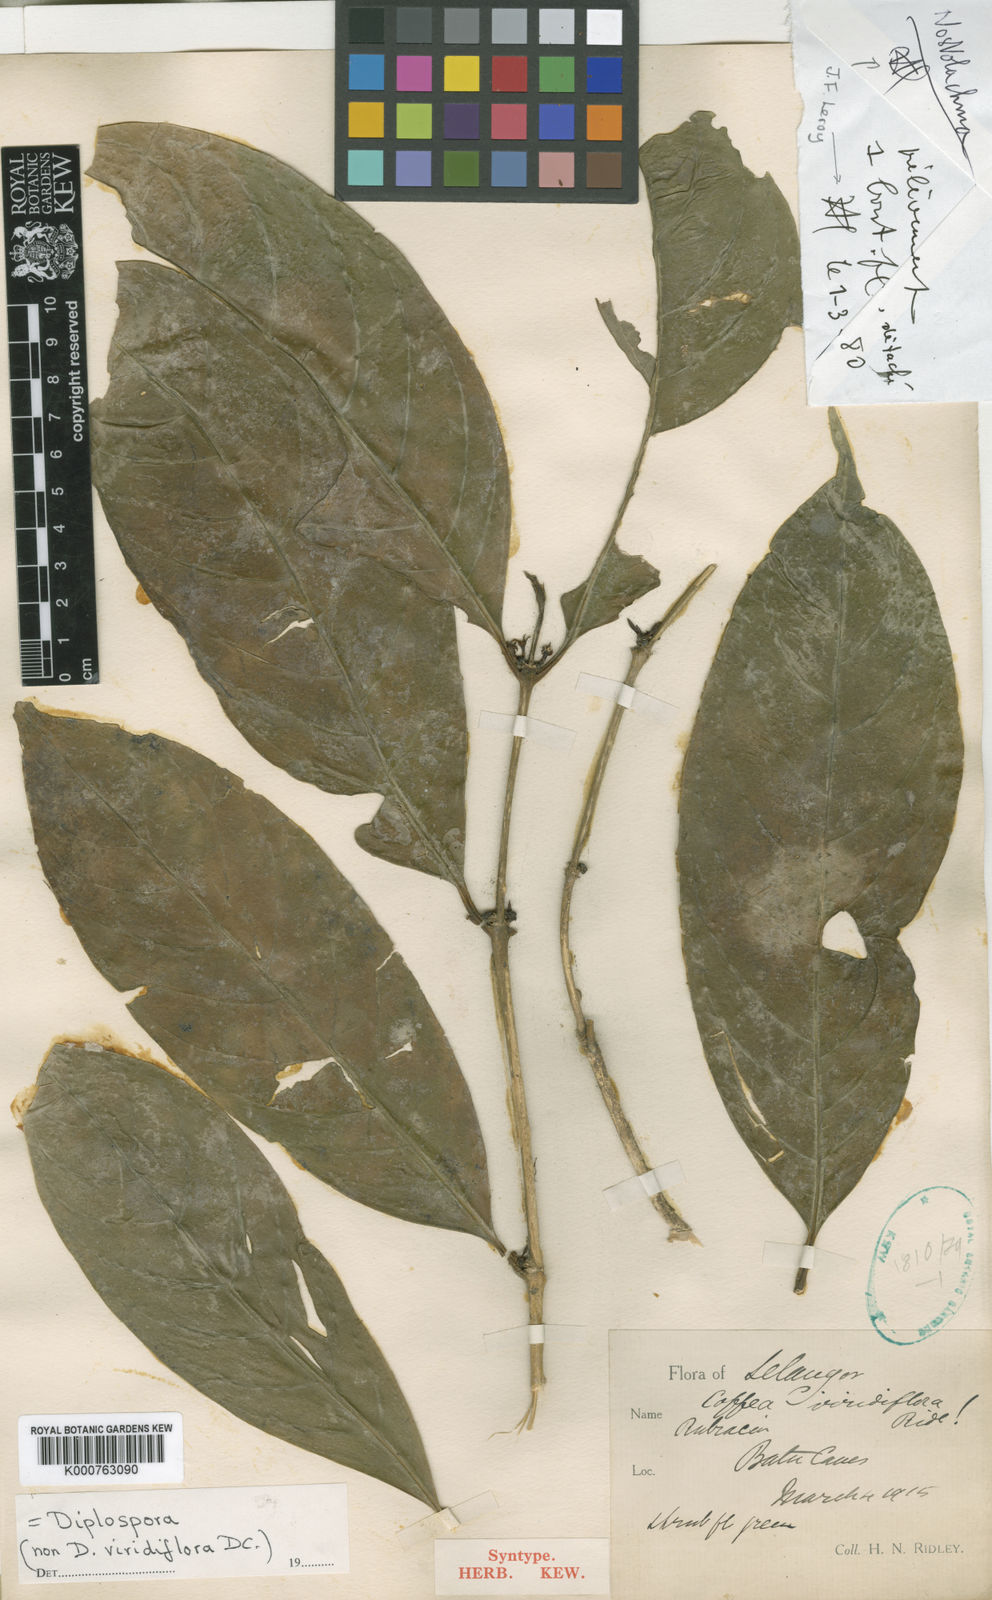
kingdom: Plantae
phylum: Tracheophyta
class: Magnoliopsida
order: Gentianales
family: Rubiaceae
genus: Diplospora
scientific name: Diplospora wrayi
